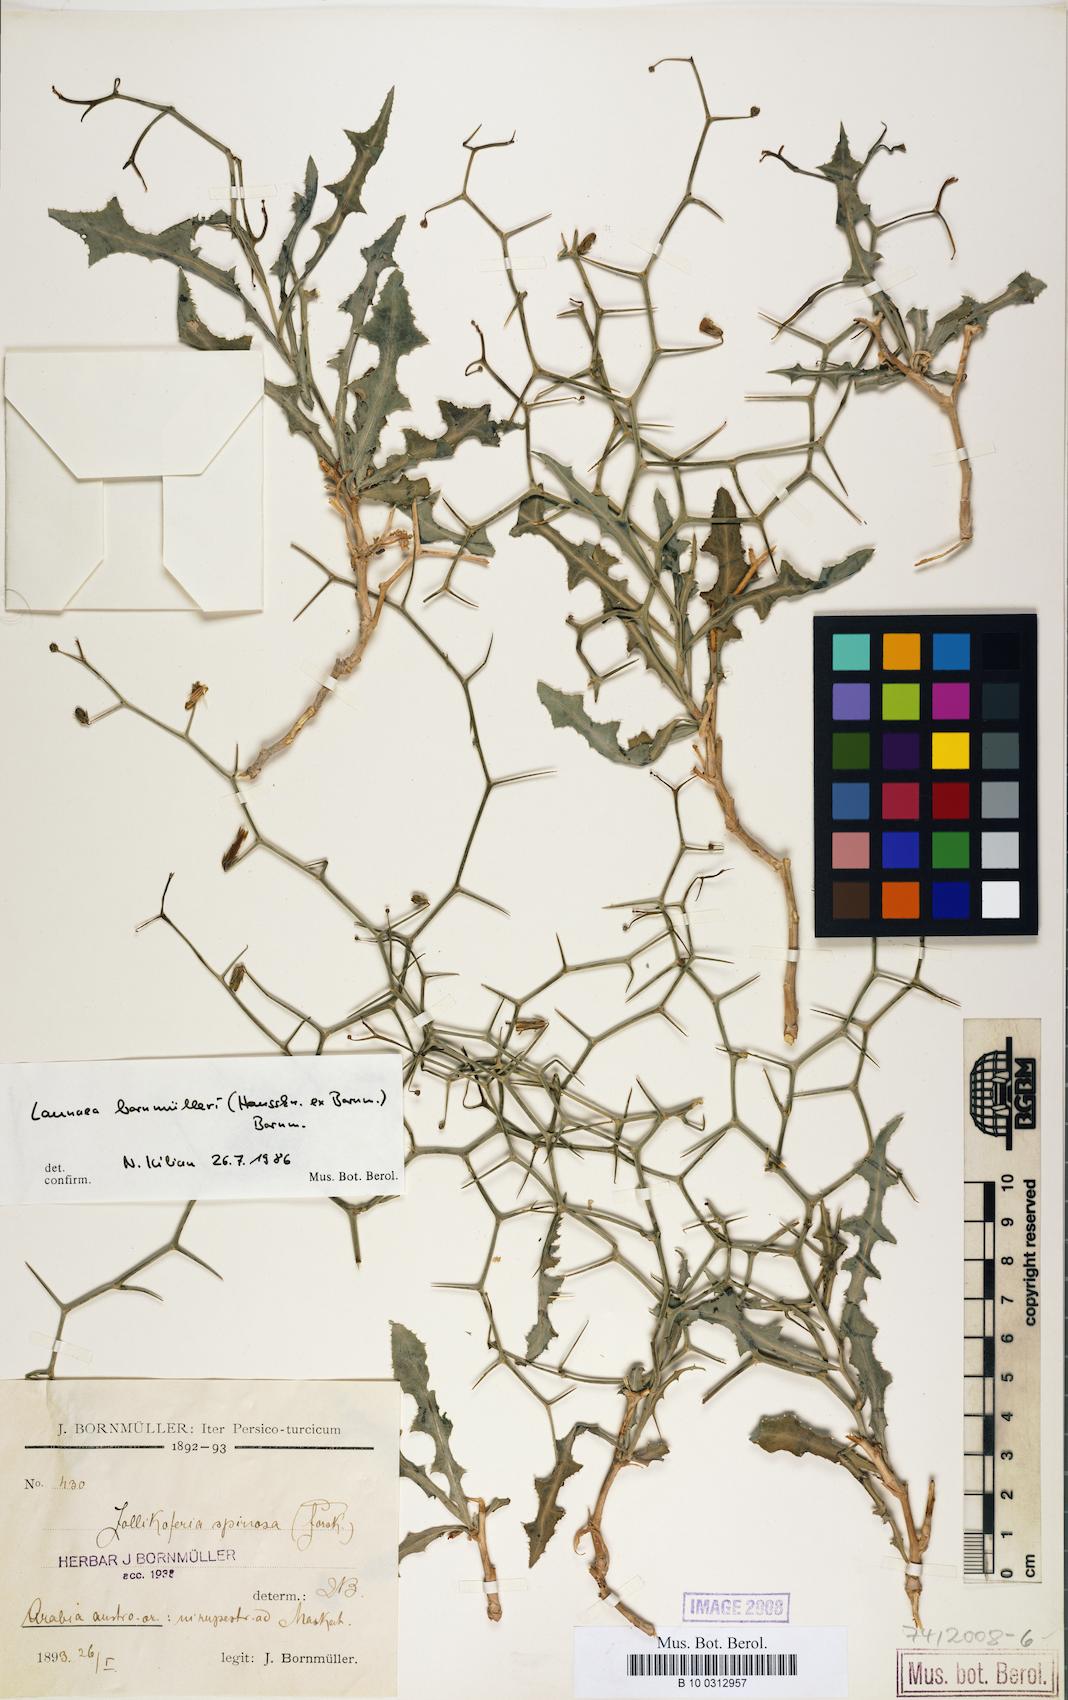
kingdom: Plantae
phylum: Tracheophyta
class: Magnoliopsida
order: Asterales
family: Asteraceae
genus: Launaea
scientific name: Launaea bornmuelleri
